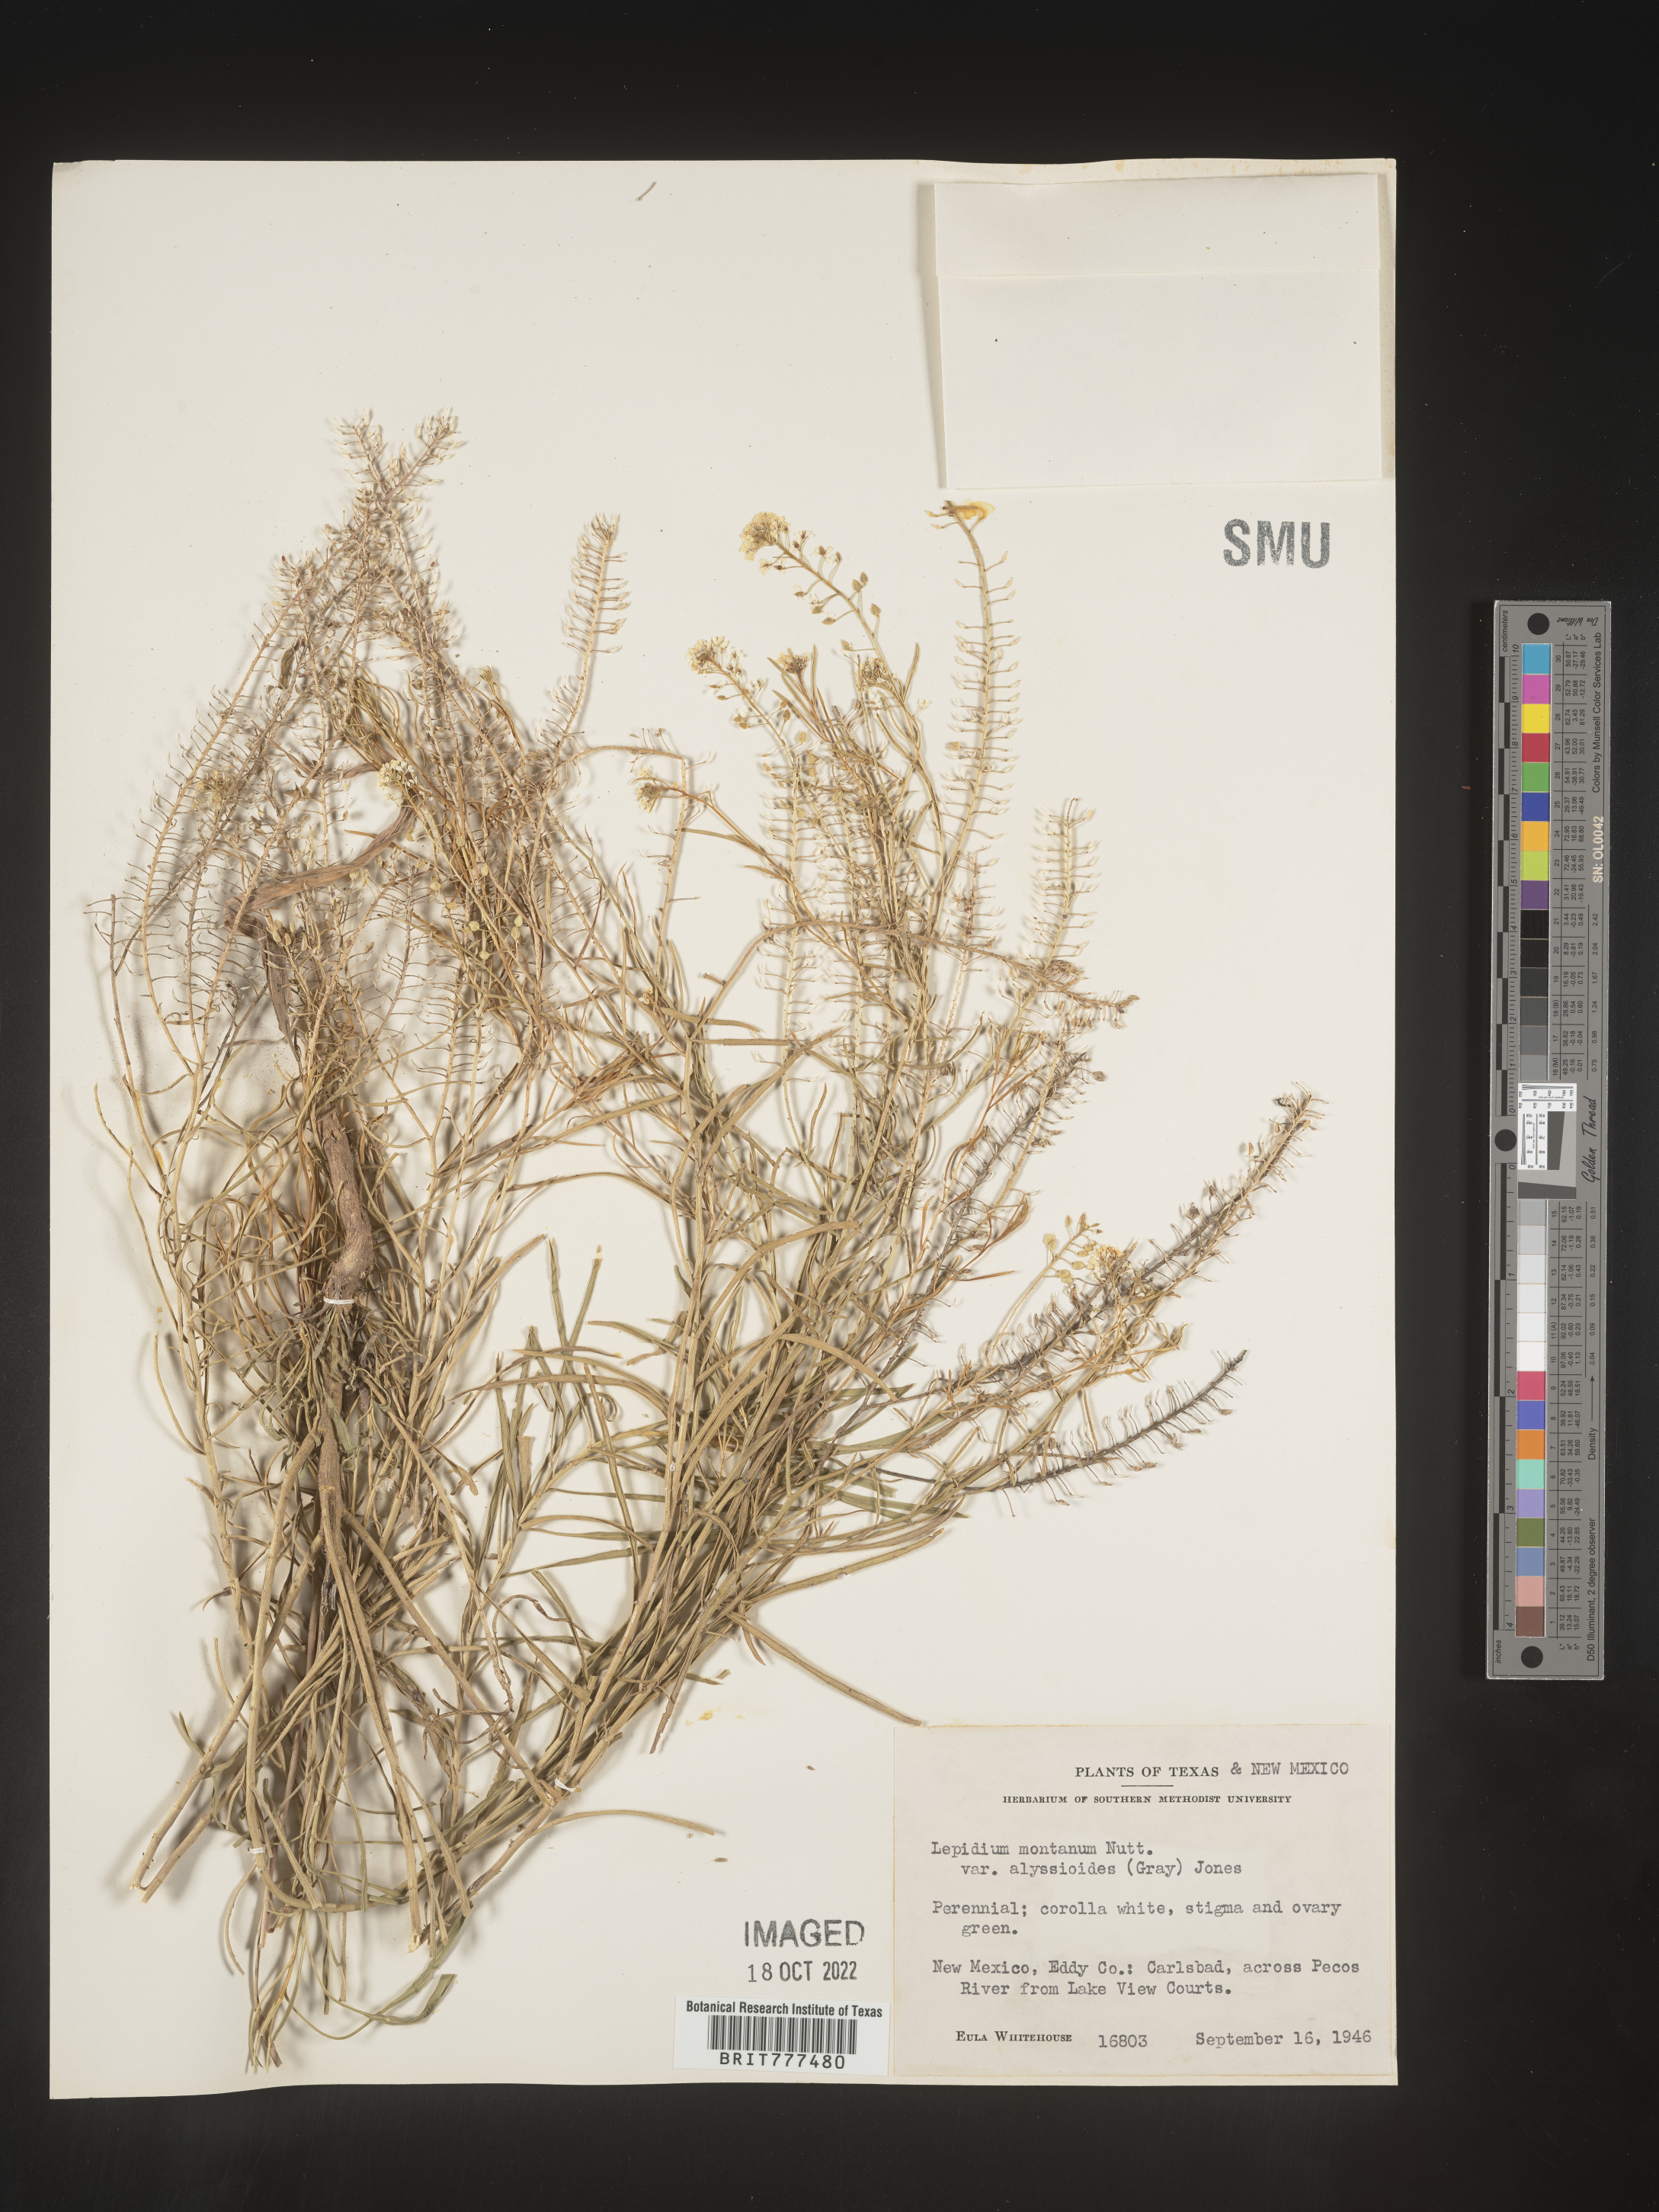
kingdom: Plantae
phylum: Tracheophyta
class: Magnoliopsida
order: Brassicales
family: Brassicaceae
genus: Lepidium
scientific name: Lepidium montanum
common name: Mountain pepperplant
